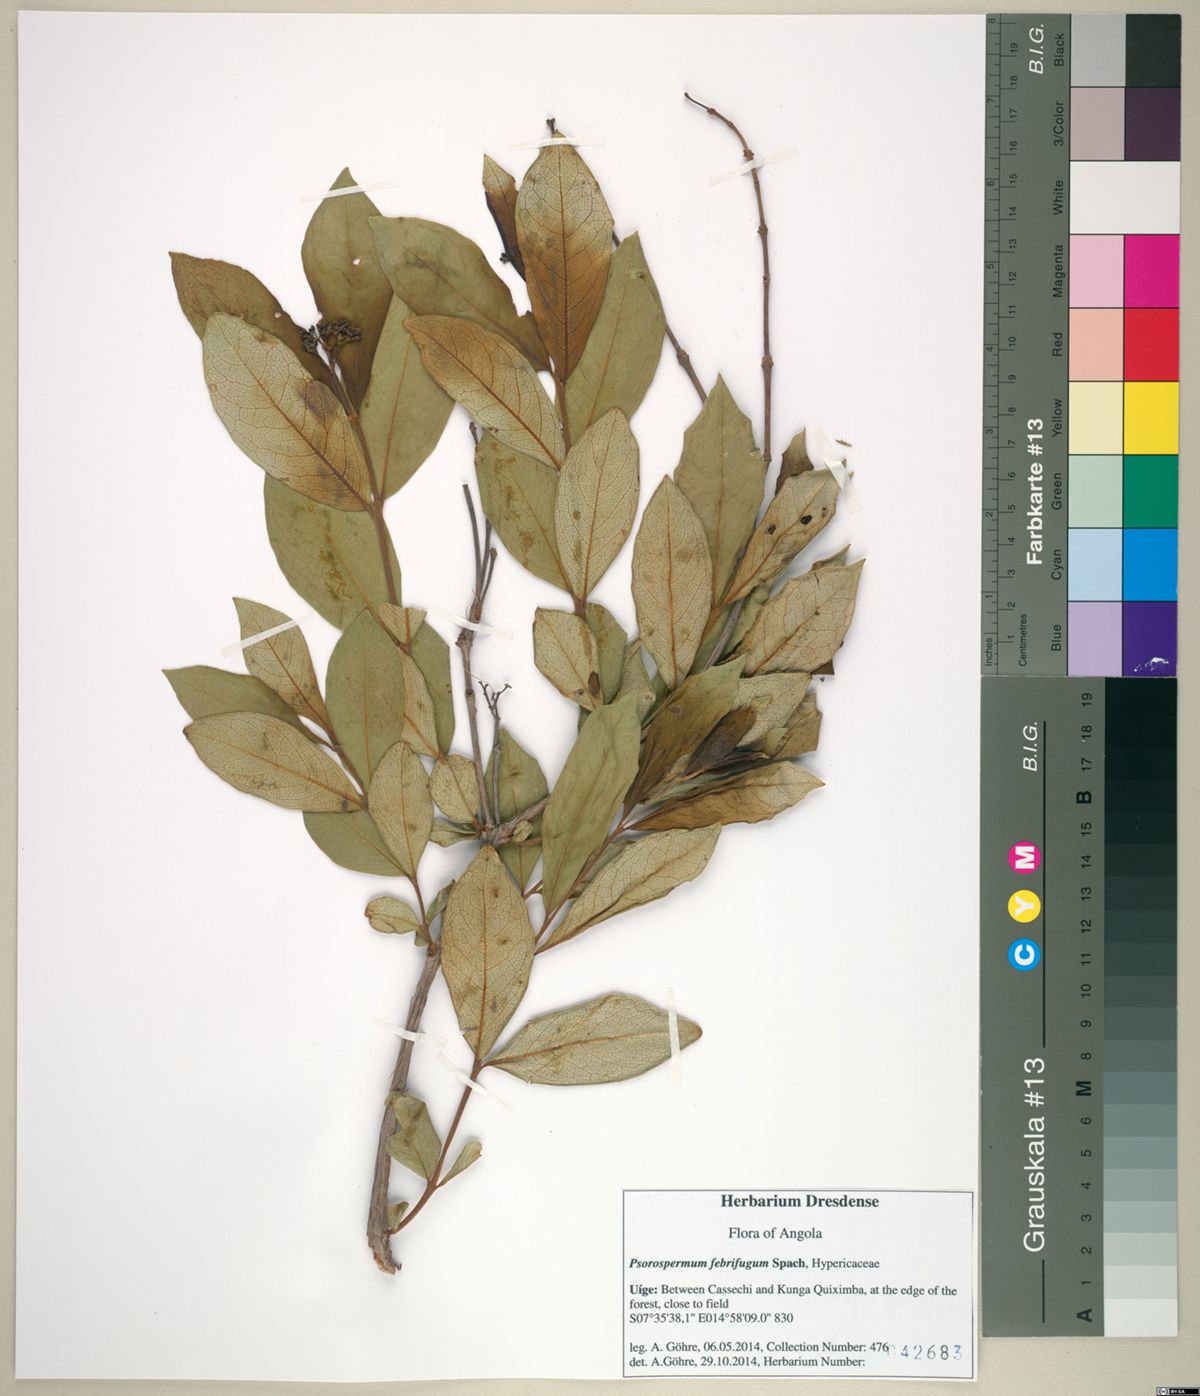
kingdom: Plantae
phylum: Tracheophyta
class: Magnoliopsida
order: Malpighiales
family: Hypericaceae
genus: Psorospermum
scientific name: Psorospermum febrifugum
